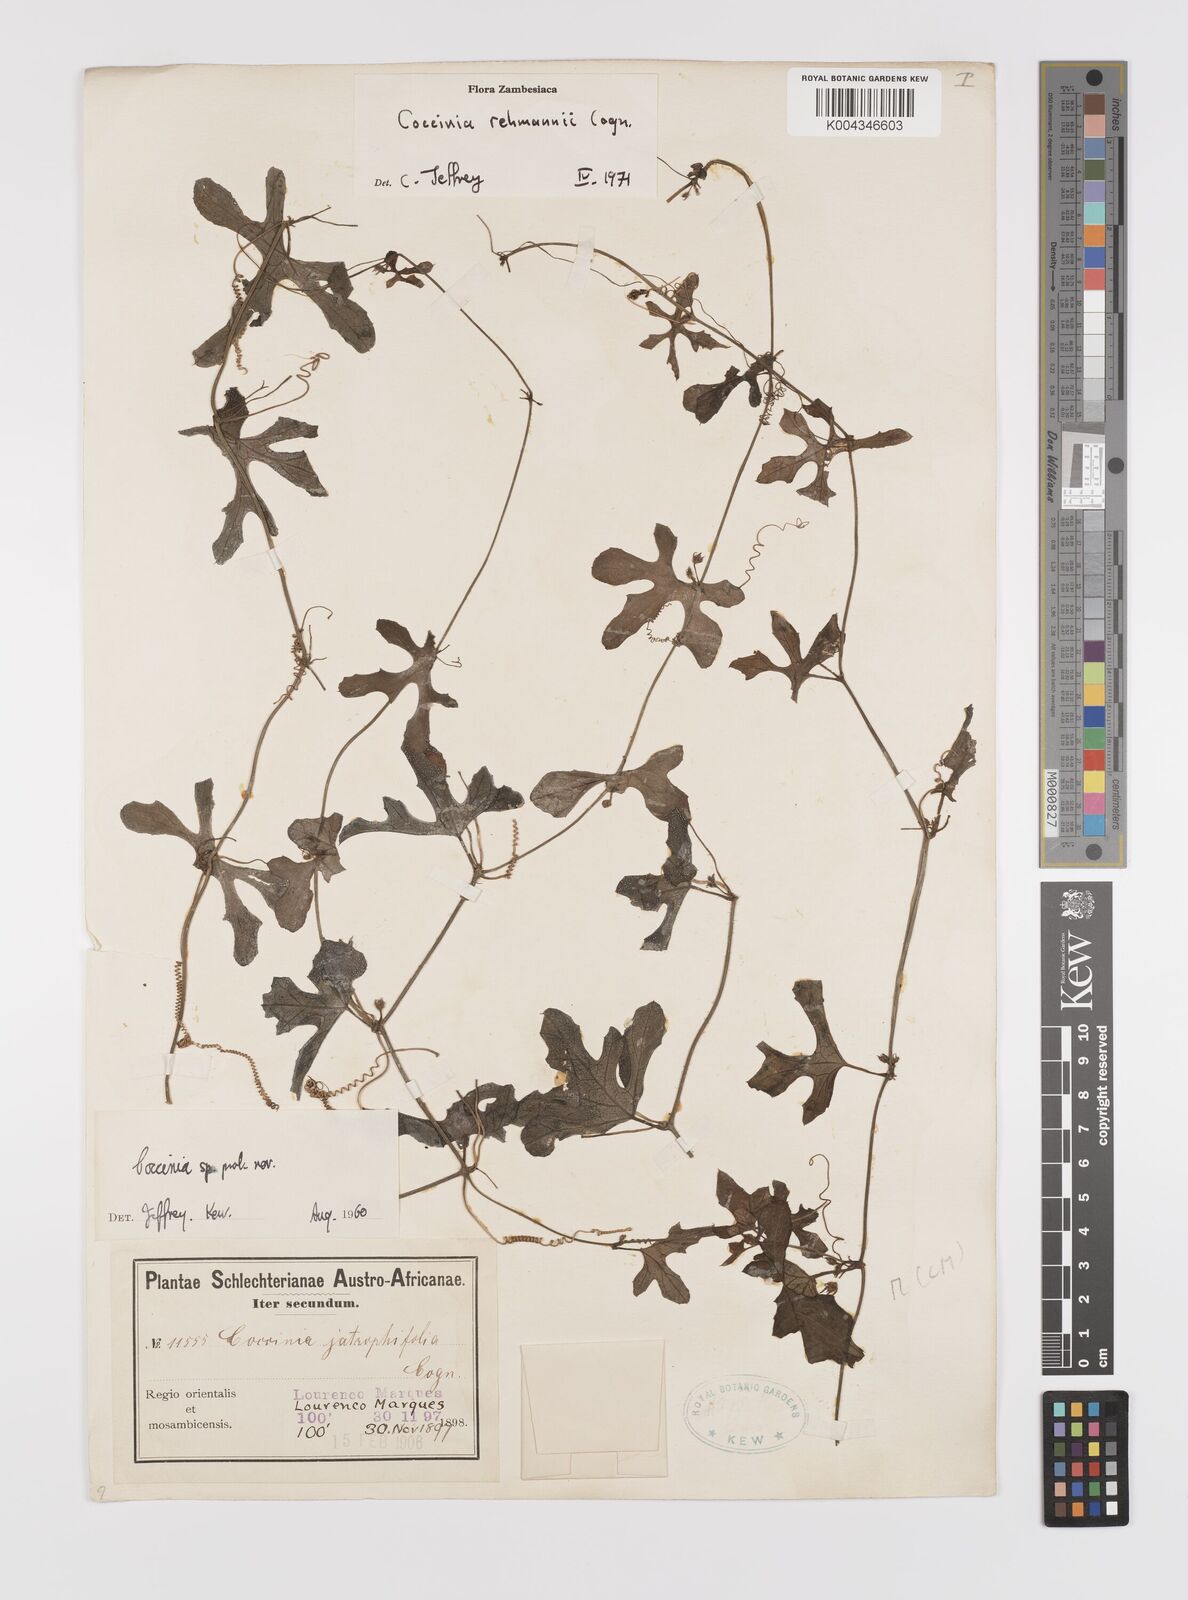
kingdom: Plantae
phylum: Tracheophyta
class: Magnoliopsida
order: Cucurbitales
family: Cucurbitaceae
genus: Coccinia
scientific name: Coccinia rehmannii
